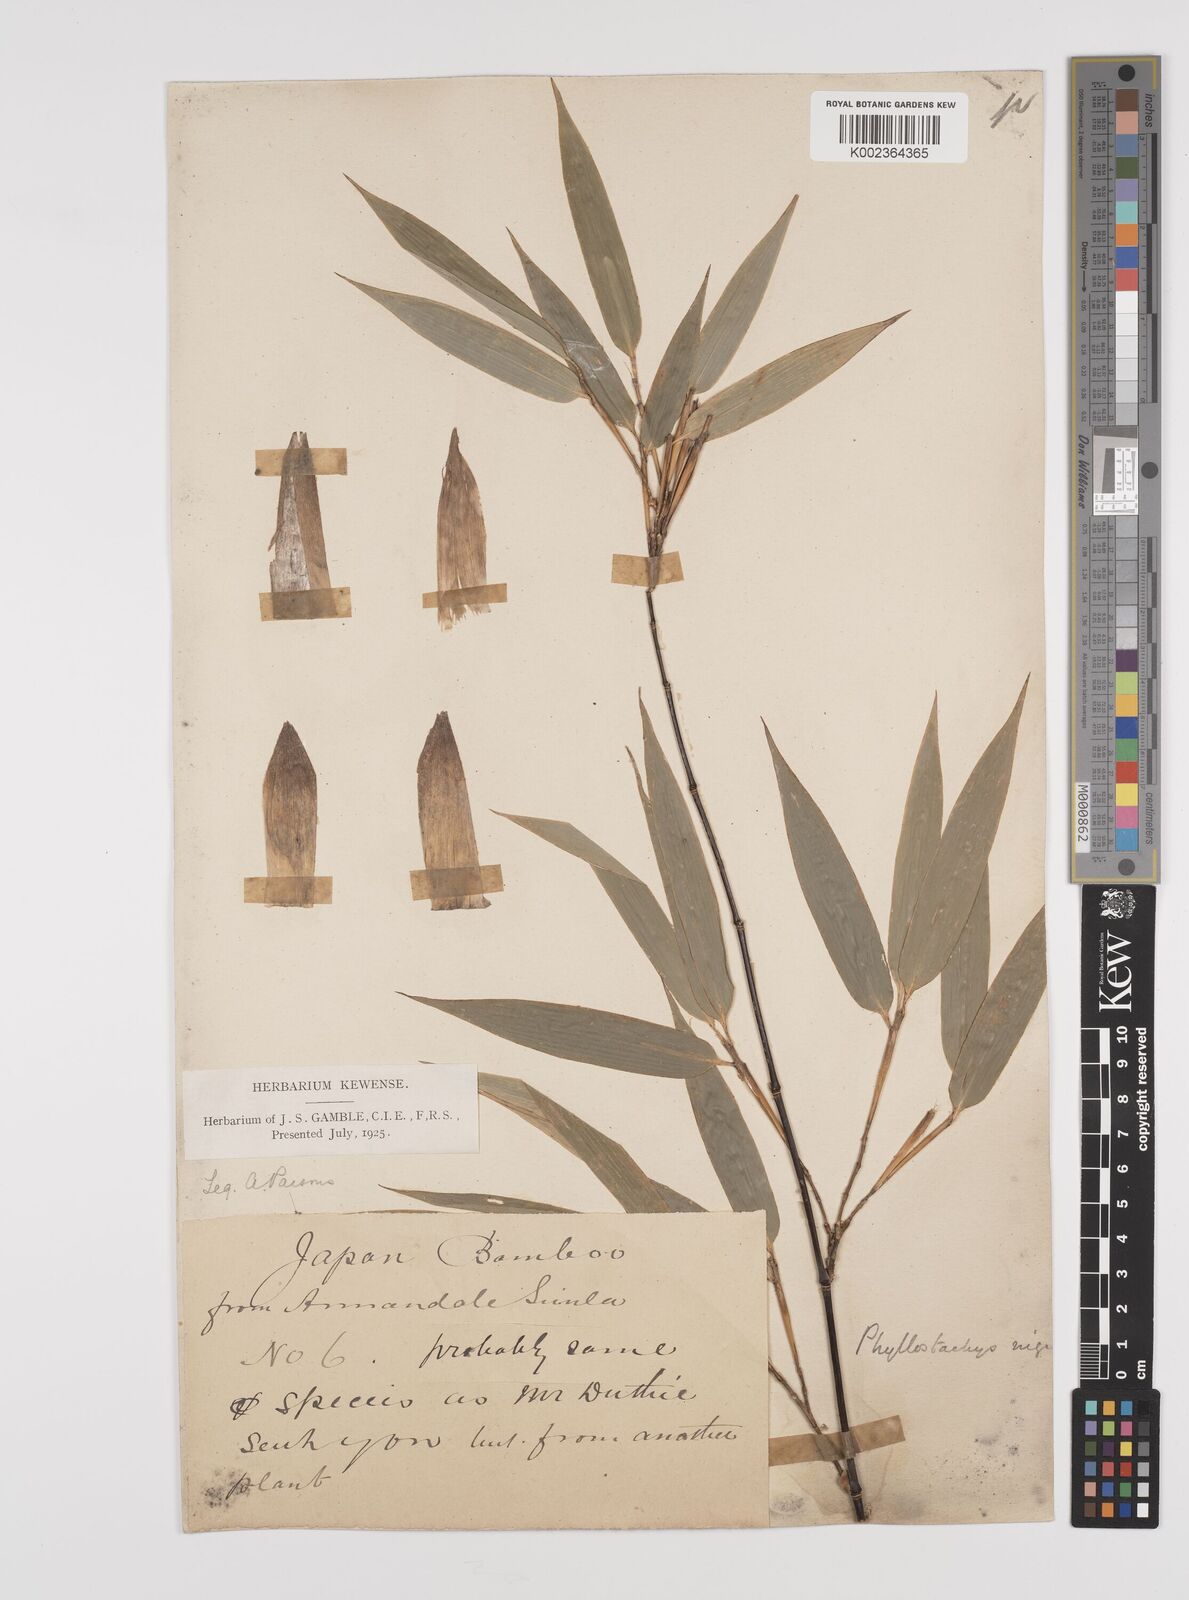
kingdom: Plantae
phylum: Tracheophyta
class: Liliopsida
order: Poales
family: Poaceae
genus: Phyllostachys
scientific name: Phyllostachys nigra
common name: Black bamboo
